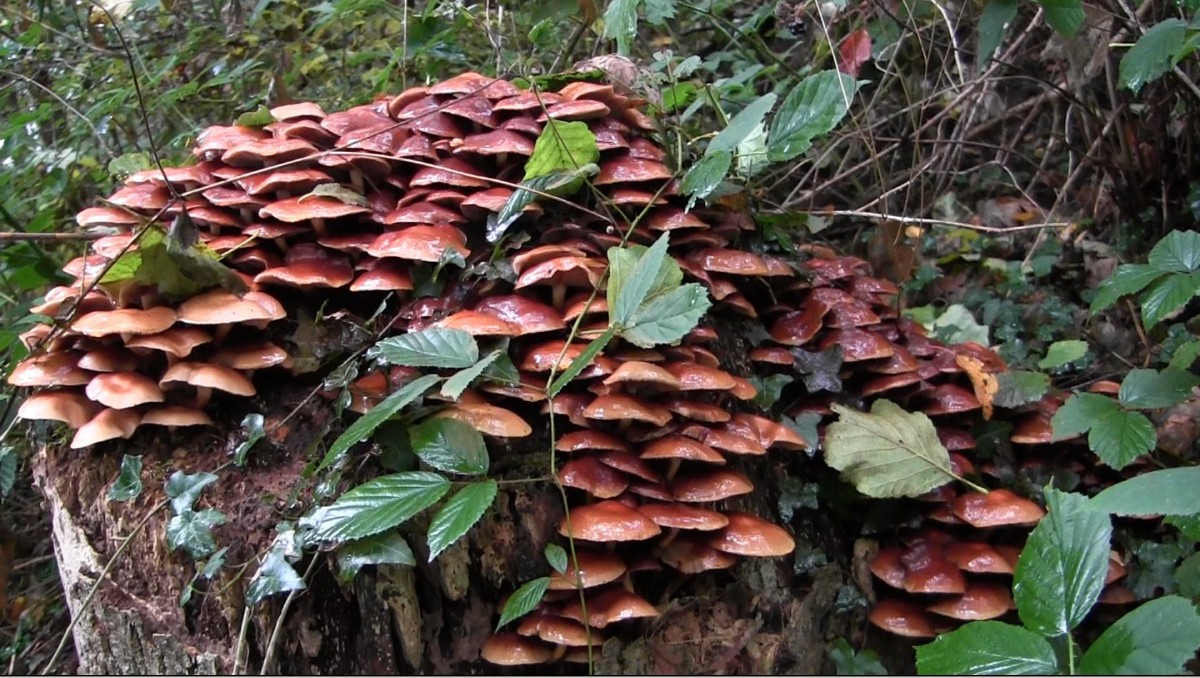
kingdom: Fungi
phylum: Basidiomycota
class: Agaricomycetes
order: Agaricales
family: Strophariaceae
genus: Kuehneromyces
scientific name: Kuehneromyces mutabilis
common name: foranderlig skælhat
